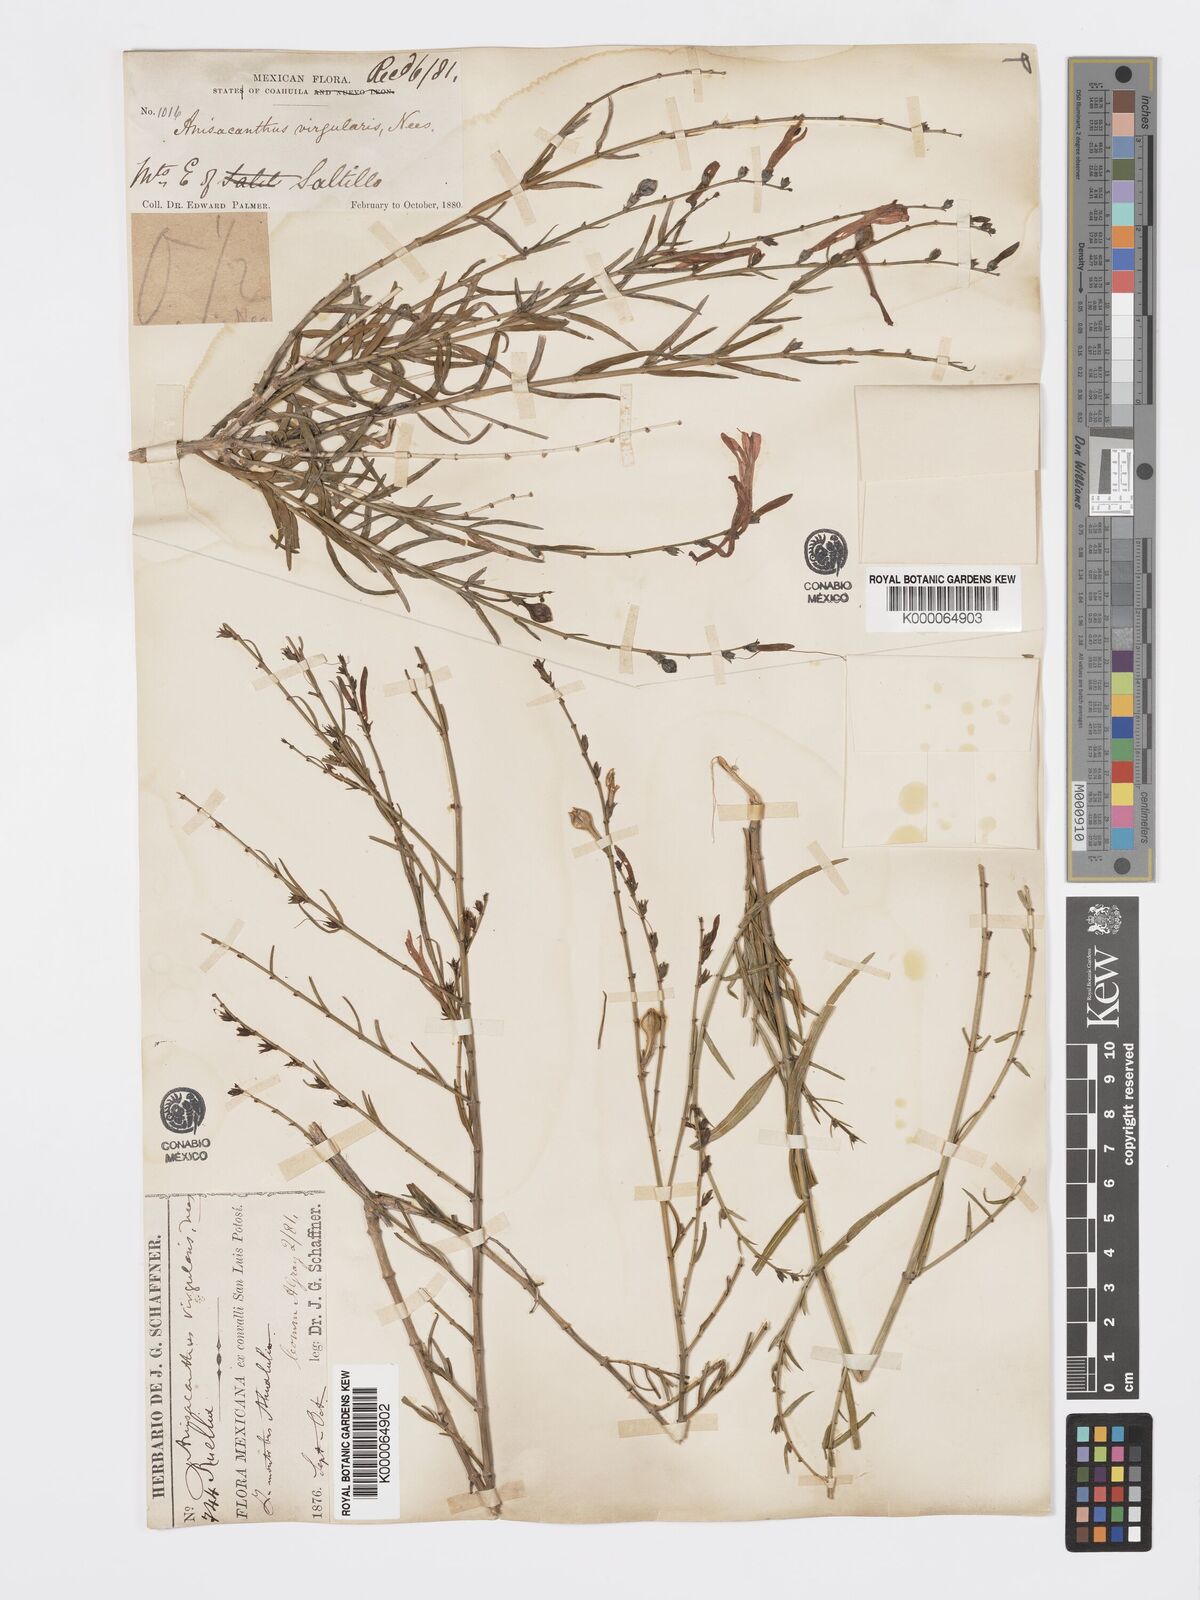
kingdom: Plantae
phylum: Tracheophyta
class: Magnoliopsida
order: Lamiales
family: Acanthaceae
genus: Anisacanthus
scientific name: Anisacanthus quadrifidus
